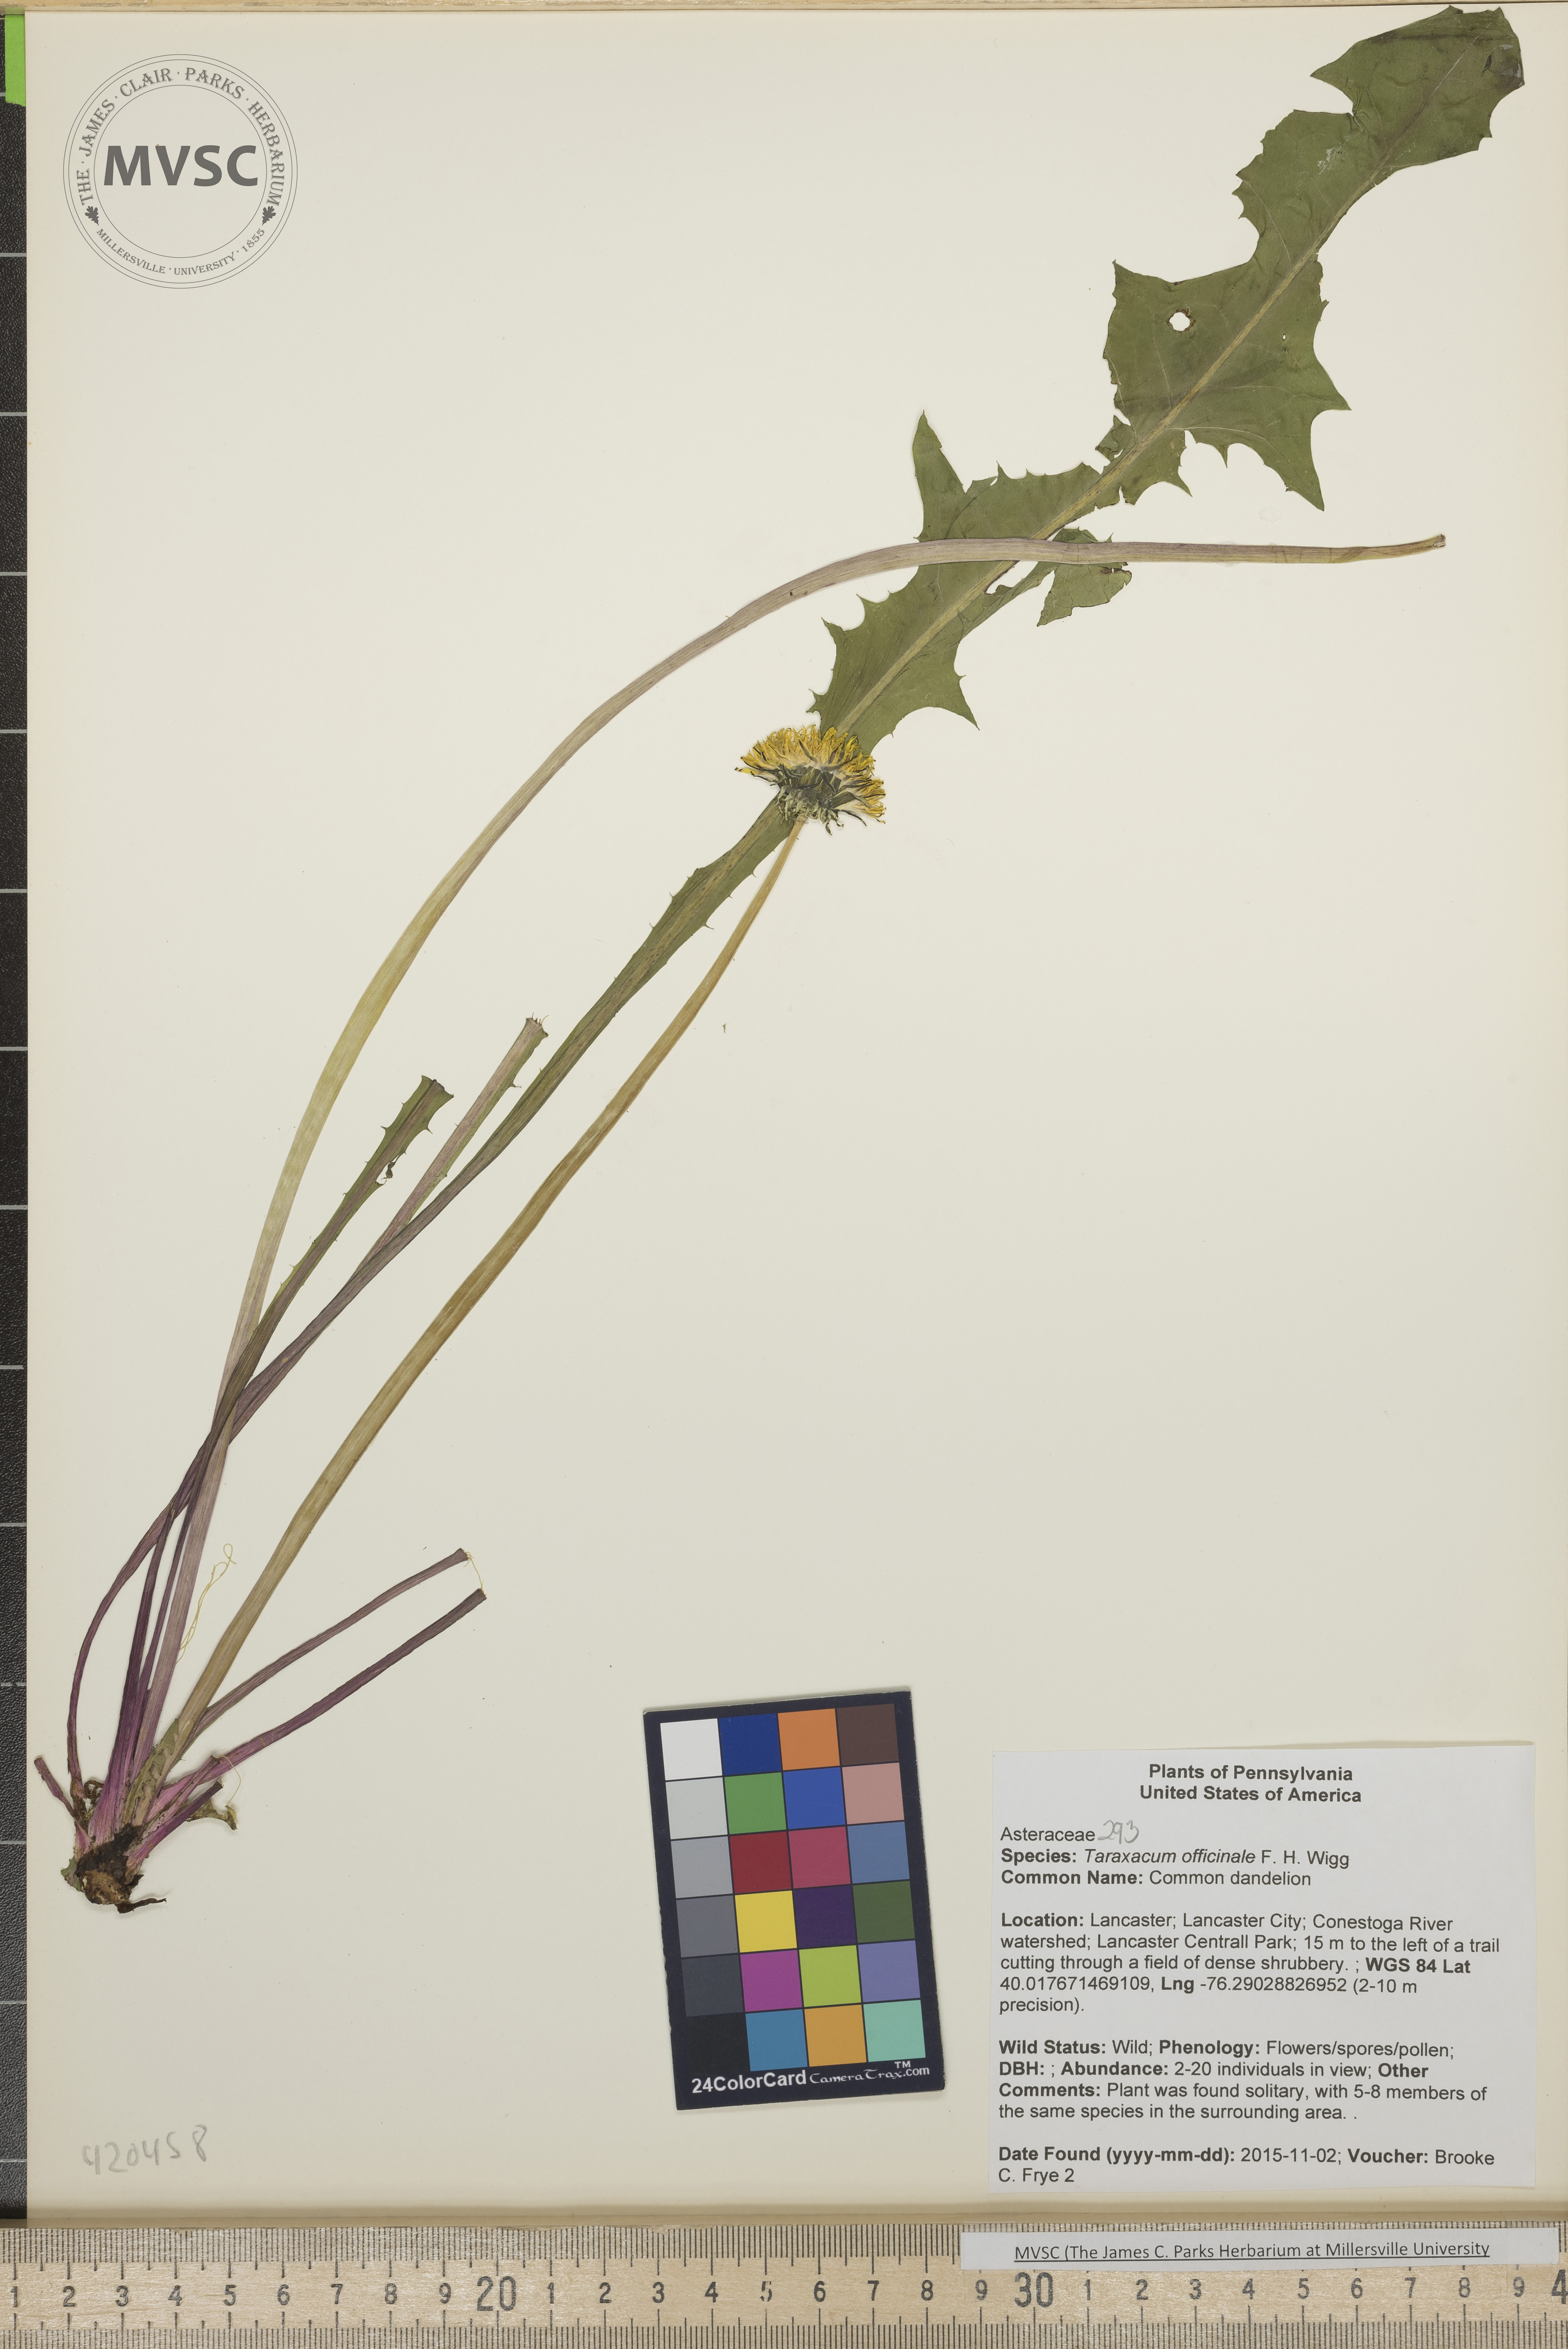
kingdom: Plantae
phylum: Tracheophyta
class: Magnoliopsida
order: Asterales
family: Asteraceae
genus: Taraxacum
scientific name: Taraxacum officinale
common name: Common dandelion
